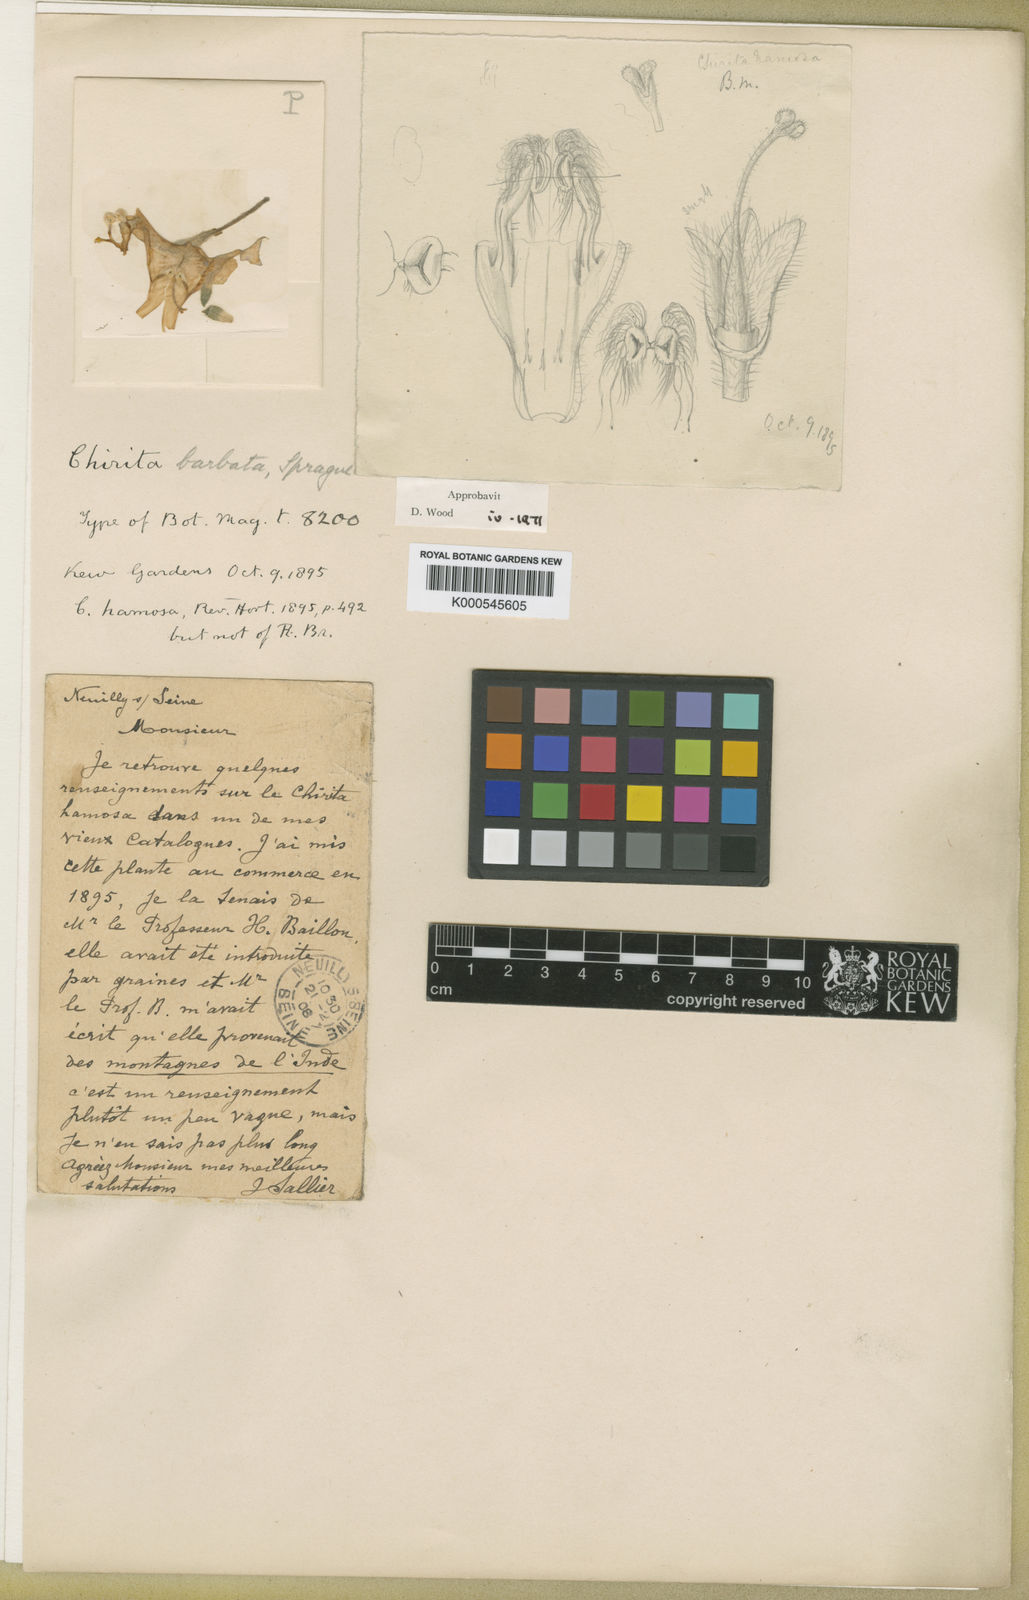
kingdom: Plantae
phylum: Tracheophyta
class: Magnoliopsida
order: Lamiales
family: Gesneriaceae
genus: Microchirita
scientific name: Microchirita barbata
